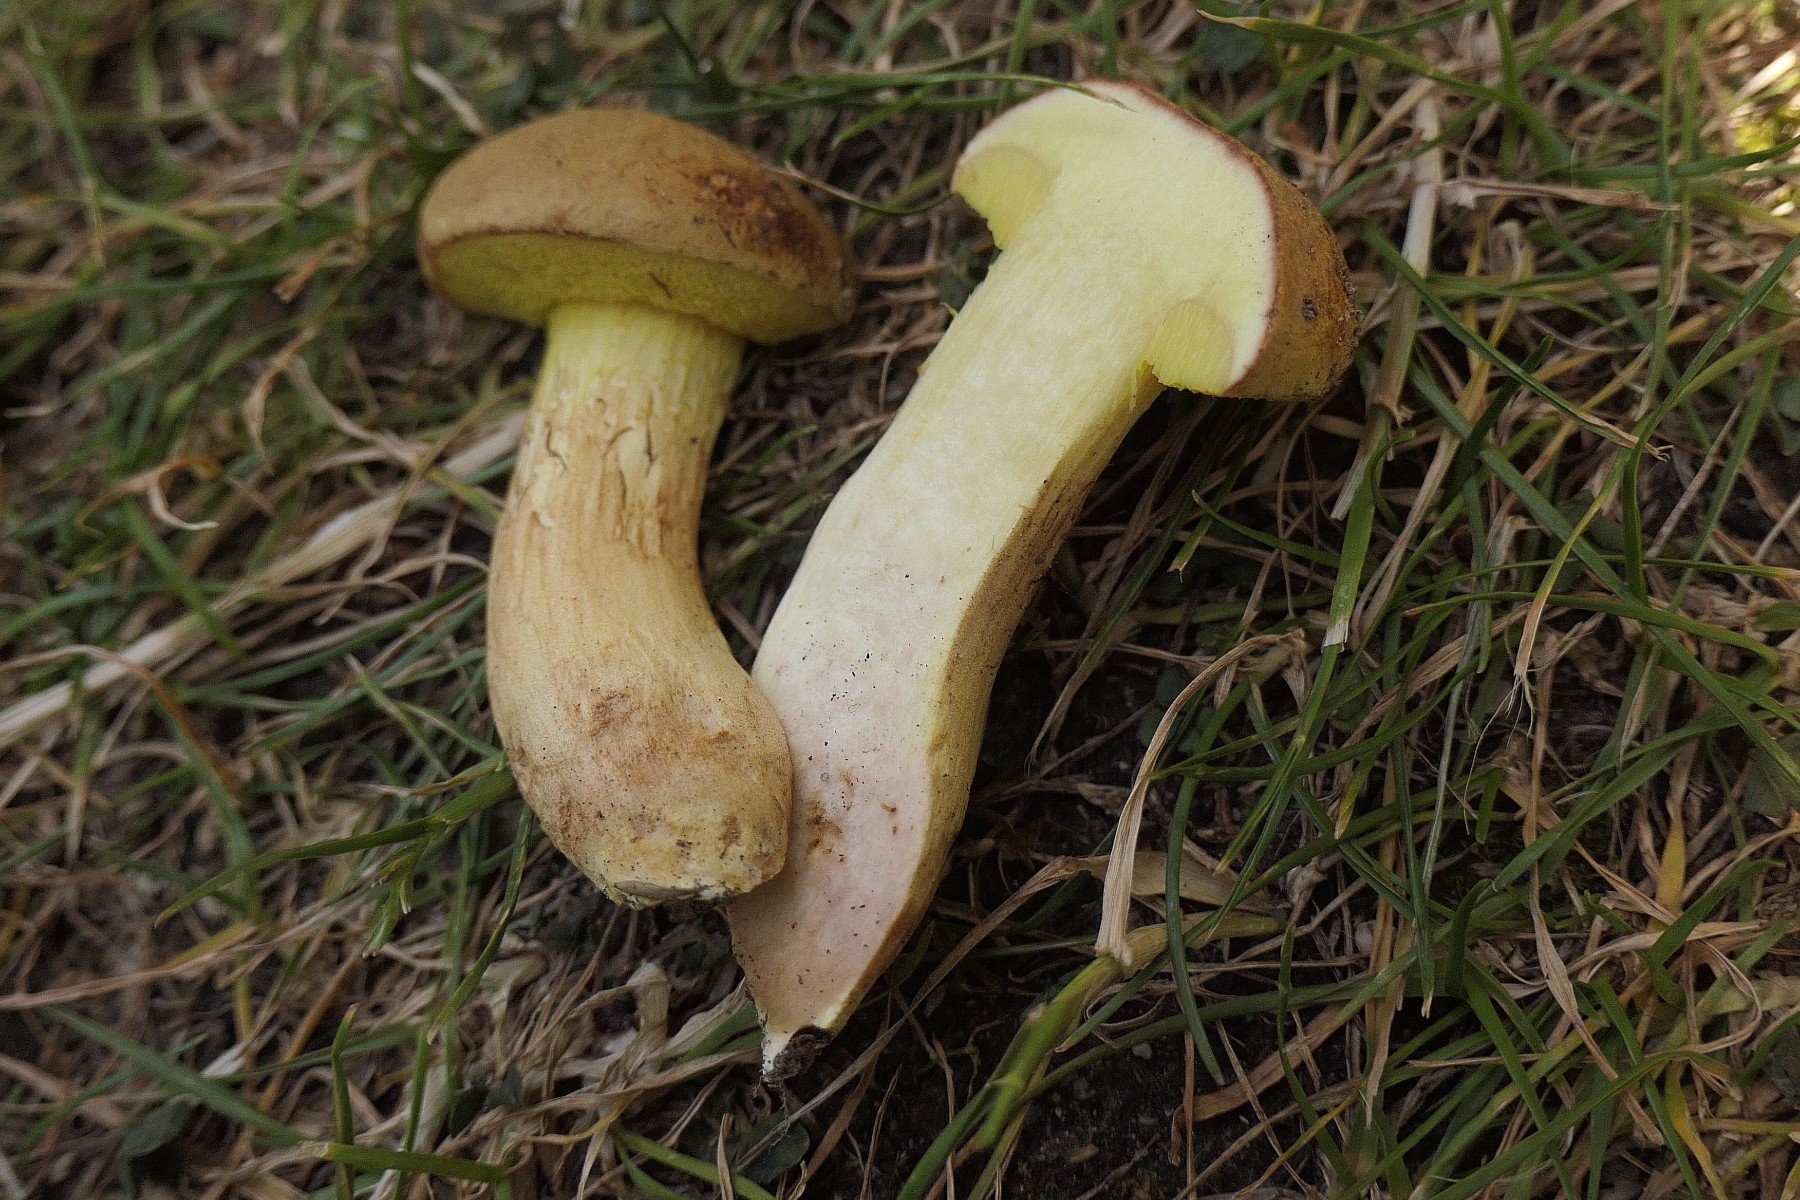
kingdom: Fungi
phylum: Basidiomycota
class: Agaricomycetes
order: Boletales
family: Boletaceae
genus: Xerocomus
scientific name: Xerocomus subtomentosus
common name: filtet rørhat
